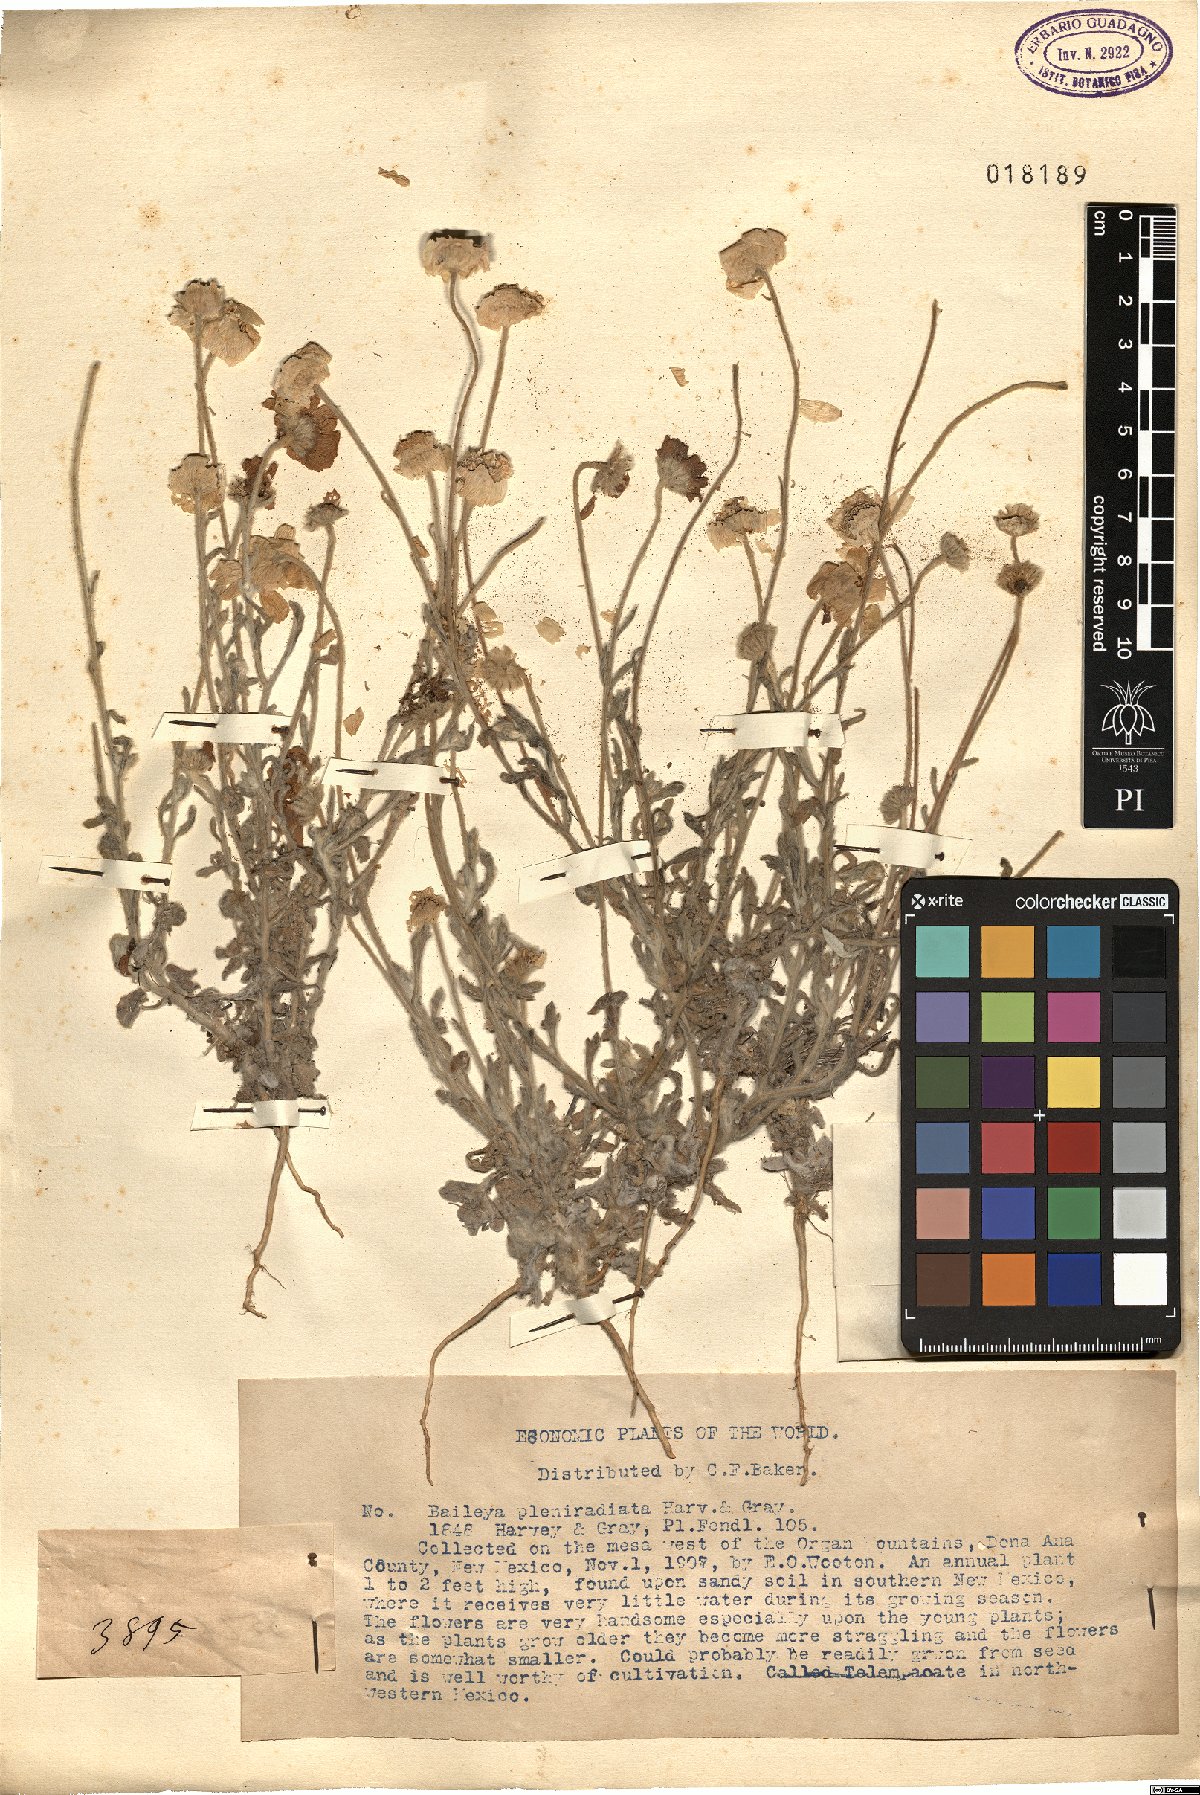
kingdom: Plantae
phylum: Tracheophyta
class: Magnoliopsida
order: Asterales
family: Asteraceae
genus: Baileya
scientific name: Baileya pleniradiata
